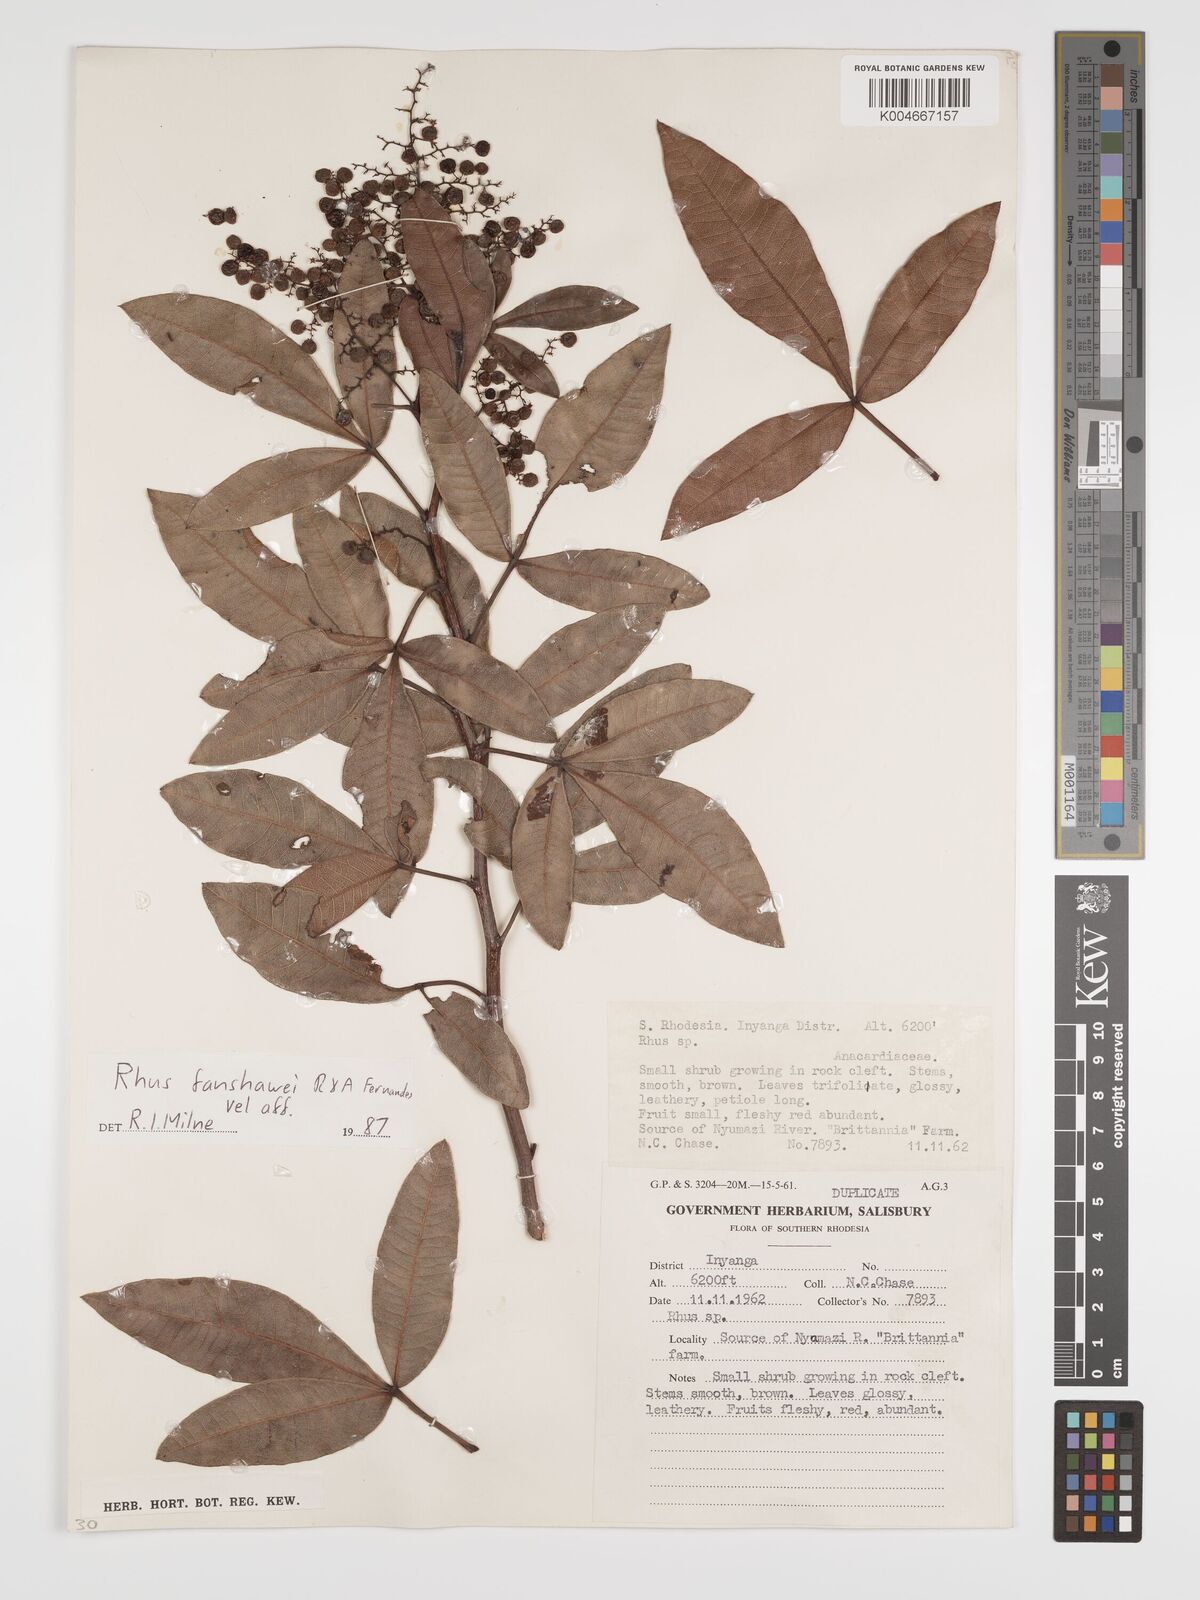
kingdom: Plantae
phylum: Tracheophyta
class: Magnoliopsida
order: Sapindales
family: Anacardiaceae
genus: Searsia
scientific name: Searsia magalismontana
